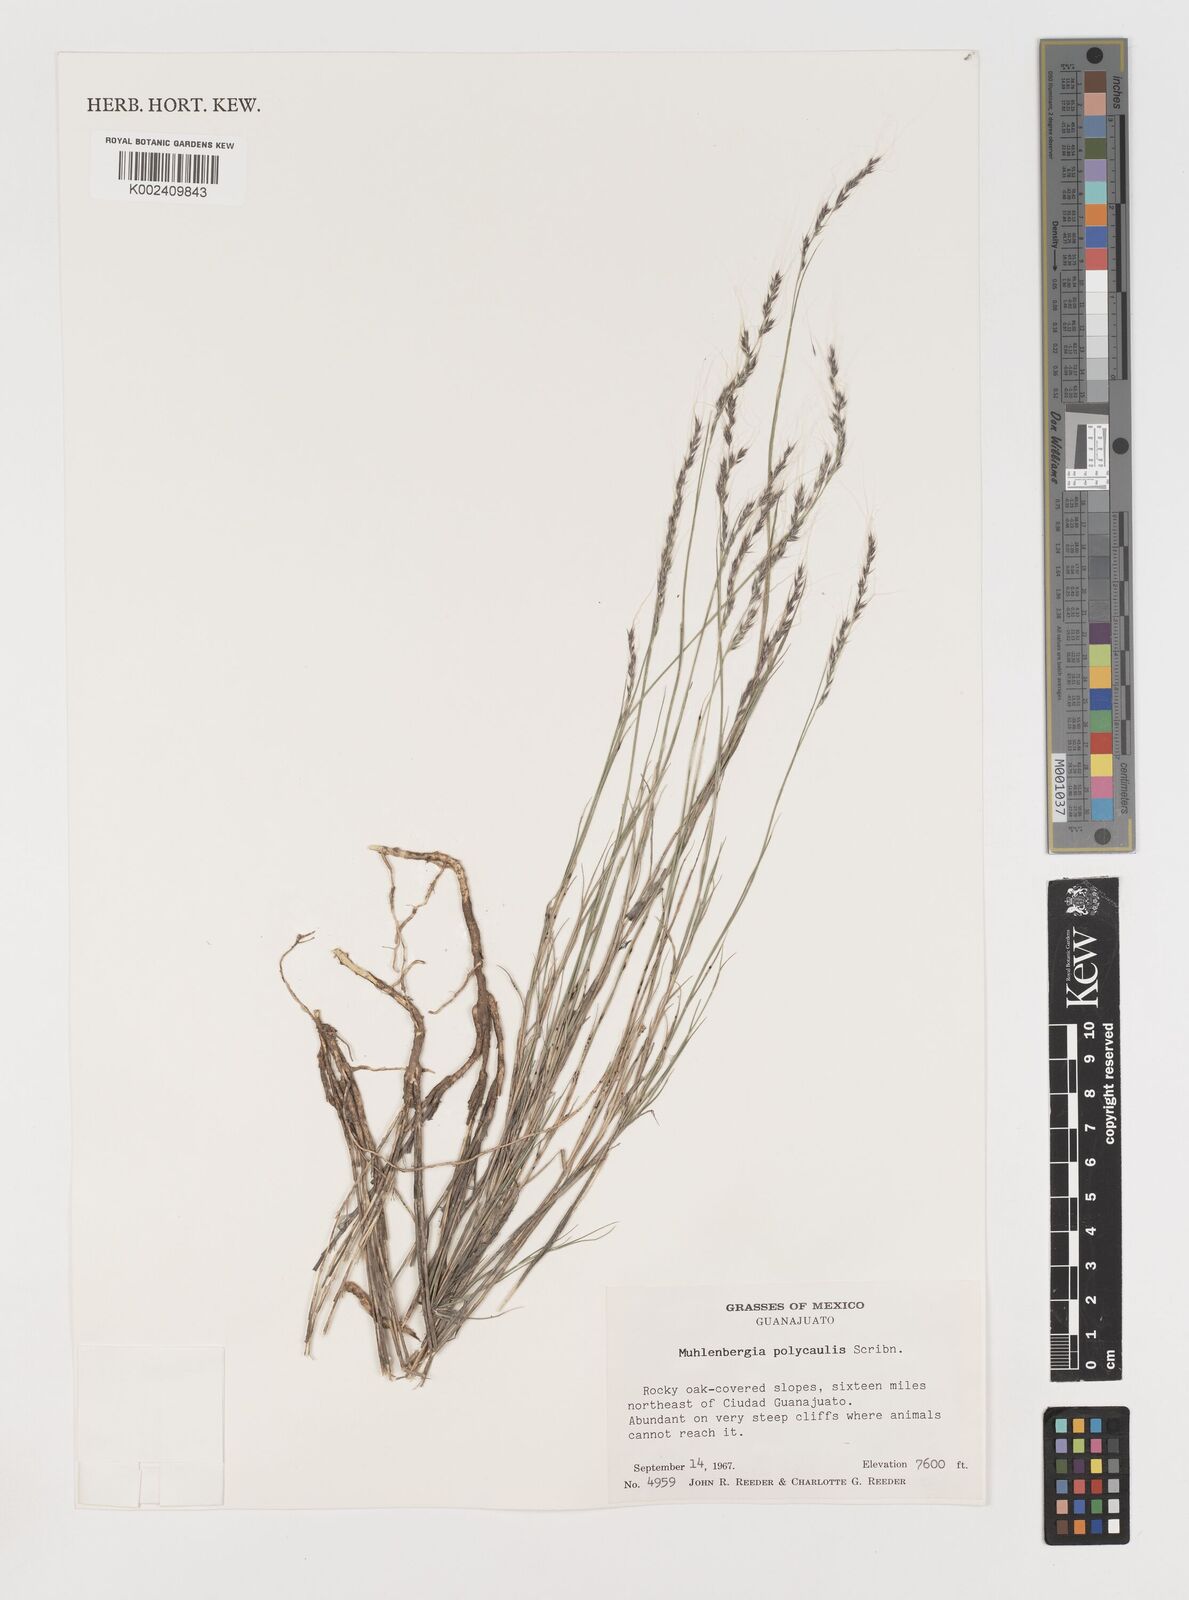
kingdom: Plantae
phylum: Tracheophyta
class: Liliopsida
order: Poales
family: Poaceae
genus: Muhlenbergia
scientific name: Muhlenbergia polycaulis
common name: Cliff muhly
